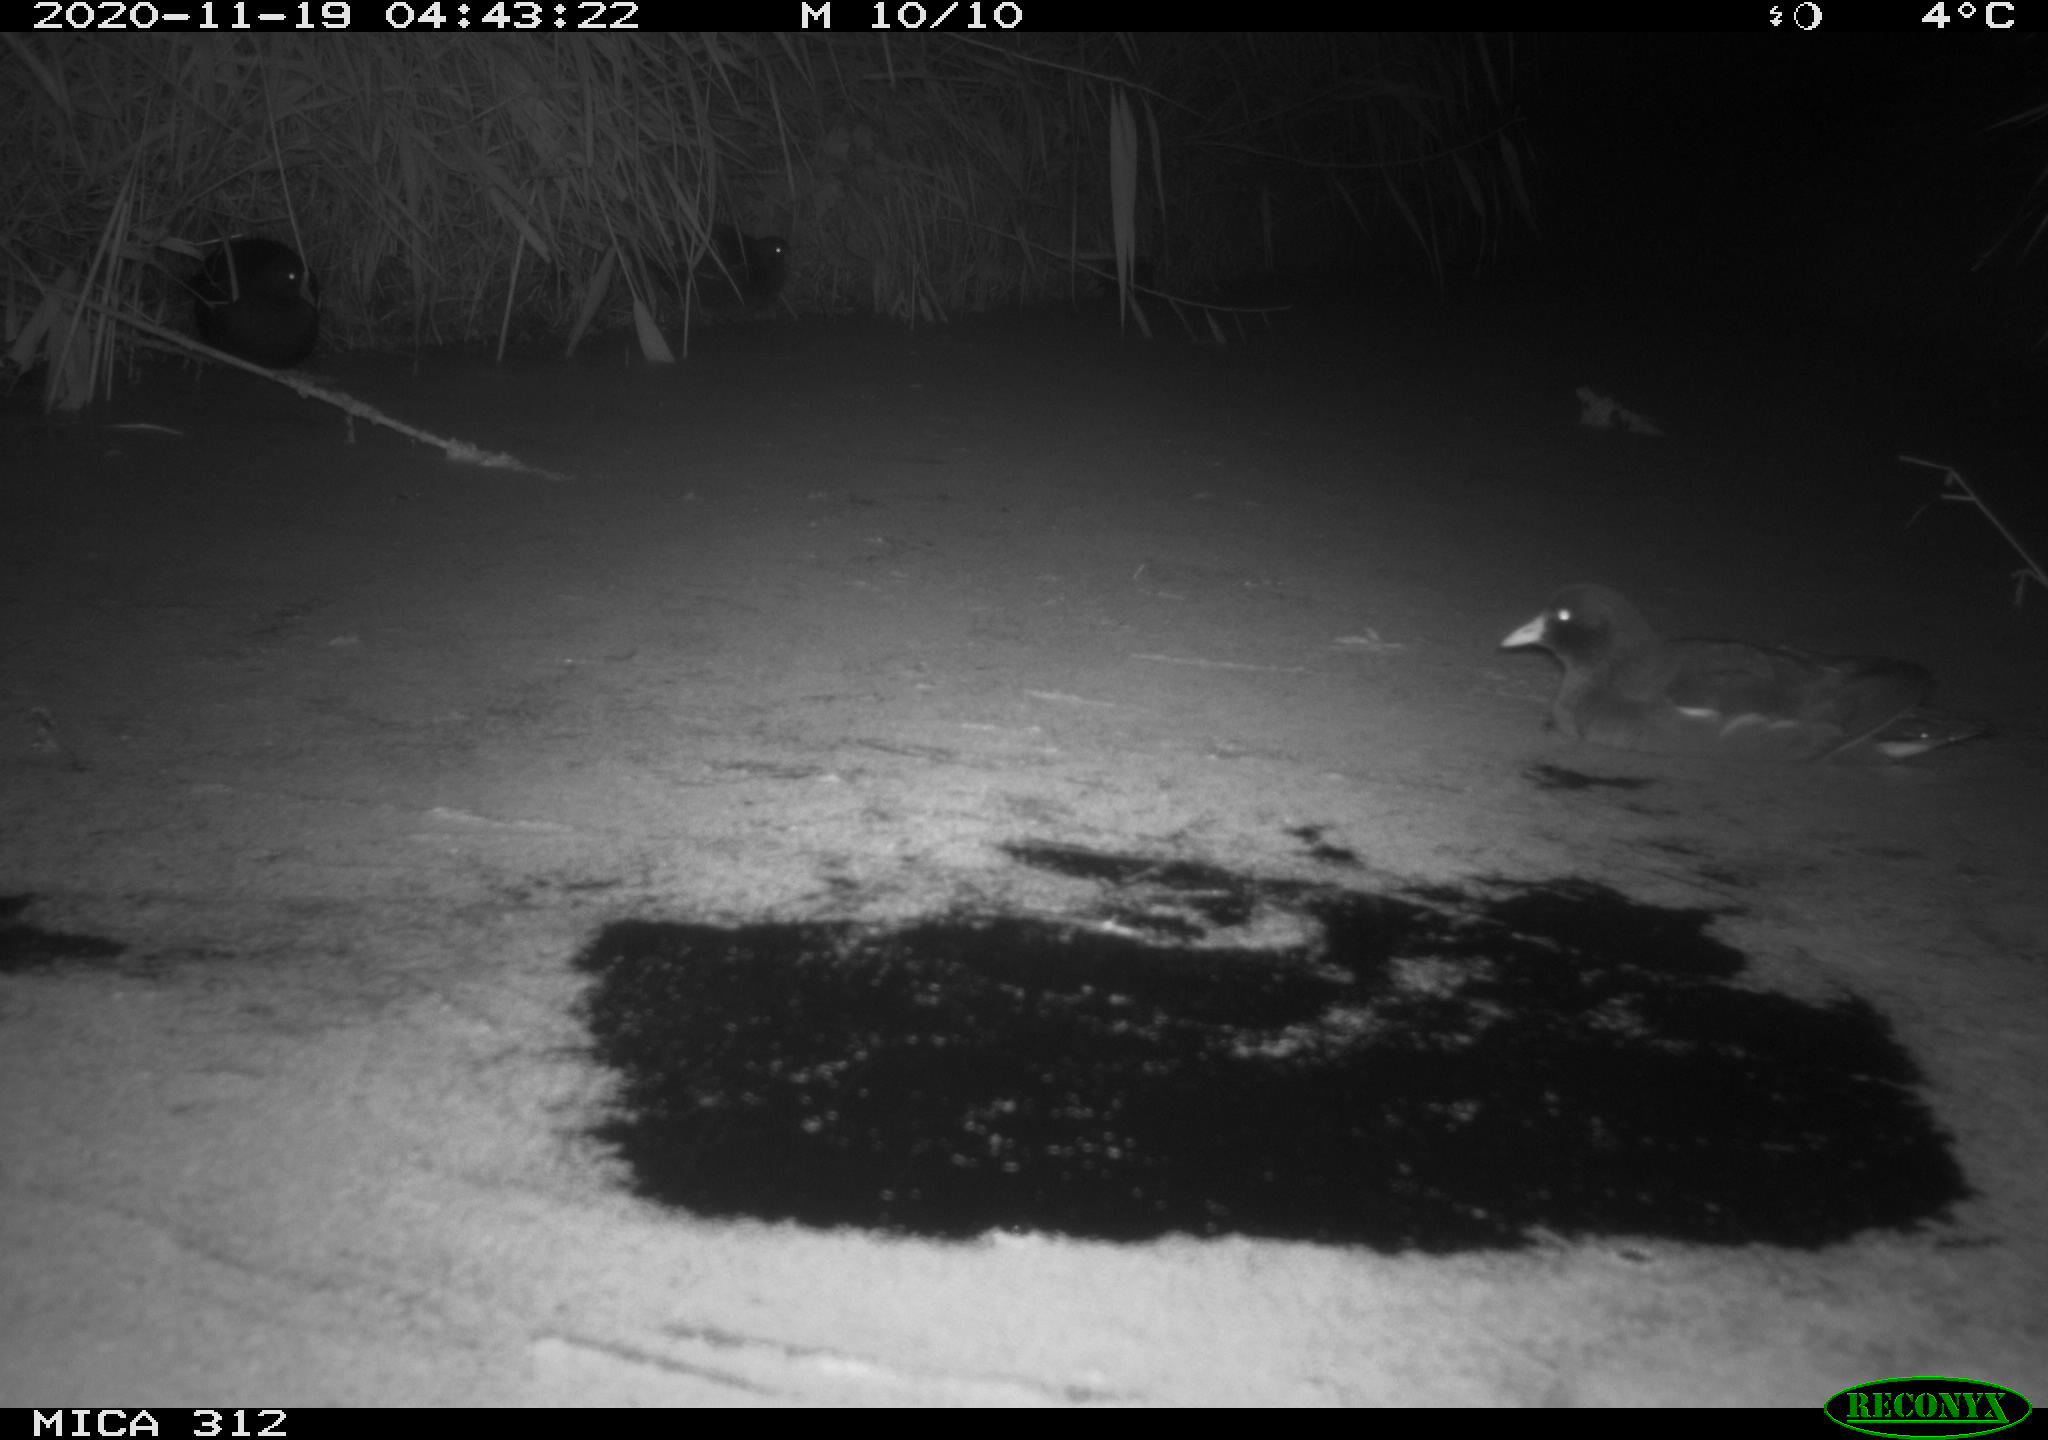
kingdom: Animalia
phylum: Chordata
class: Aves
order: Gruiformes
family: Rallidae
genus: Gallinula
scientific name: Gallinula chloropus
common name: Common moorhen
